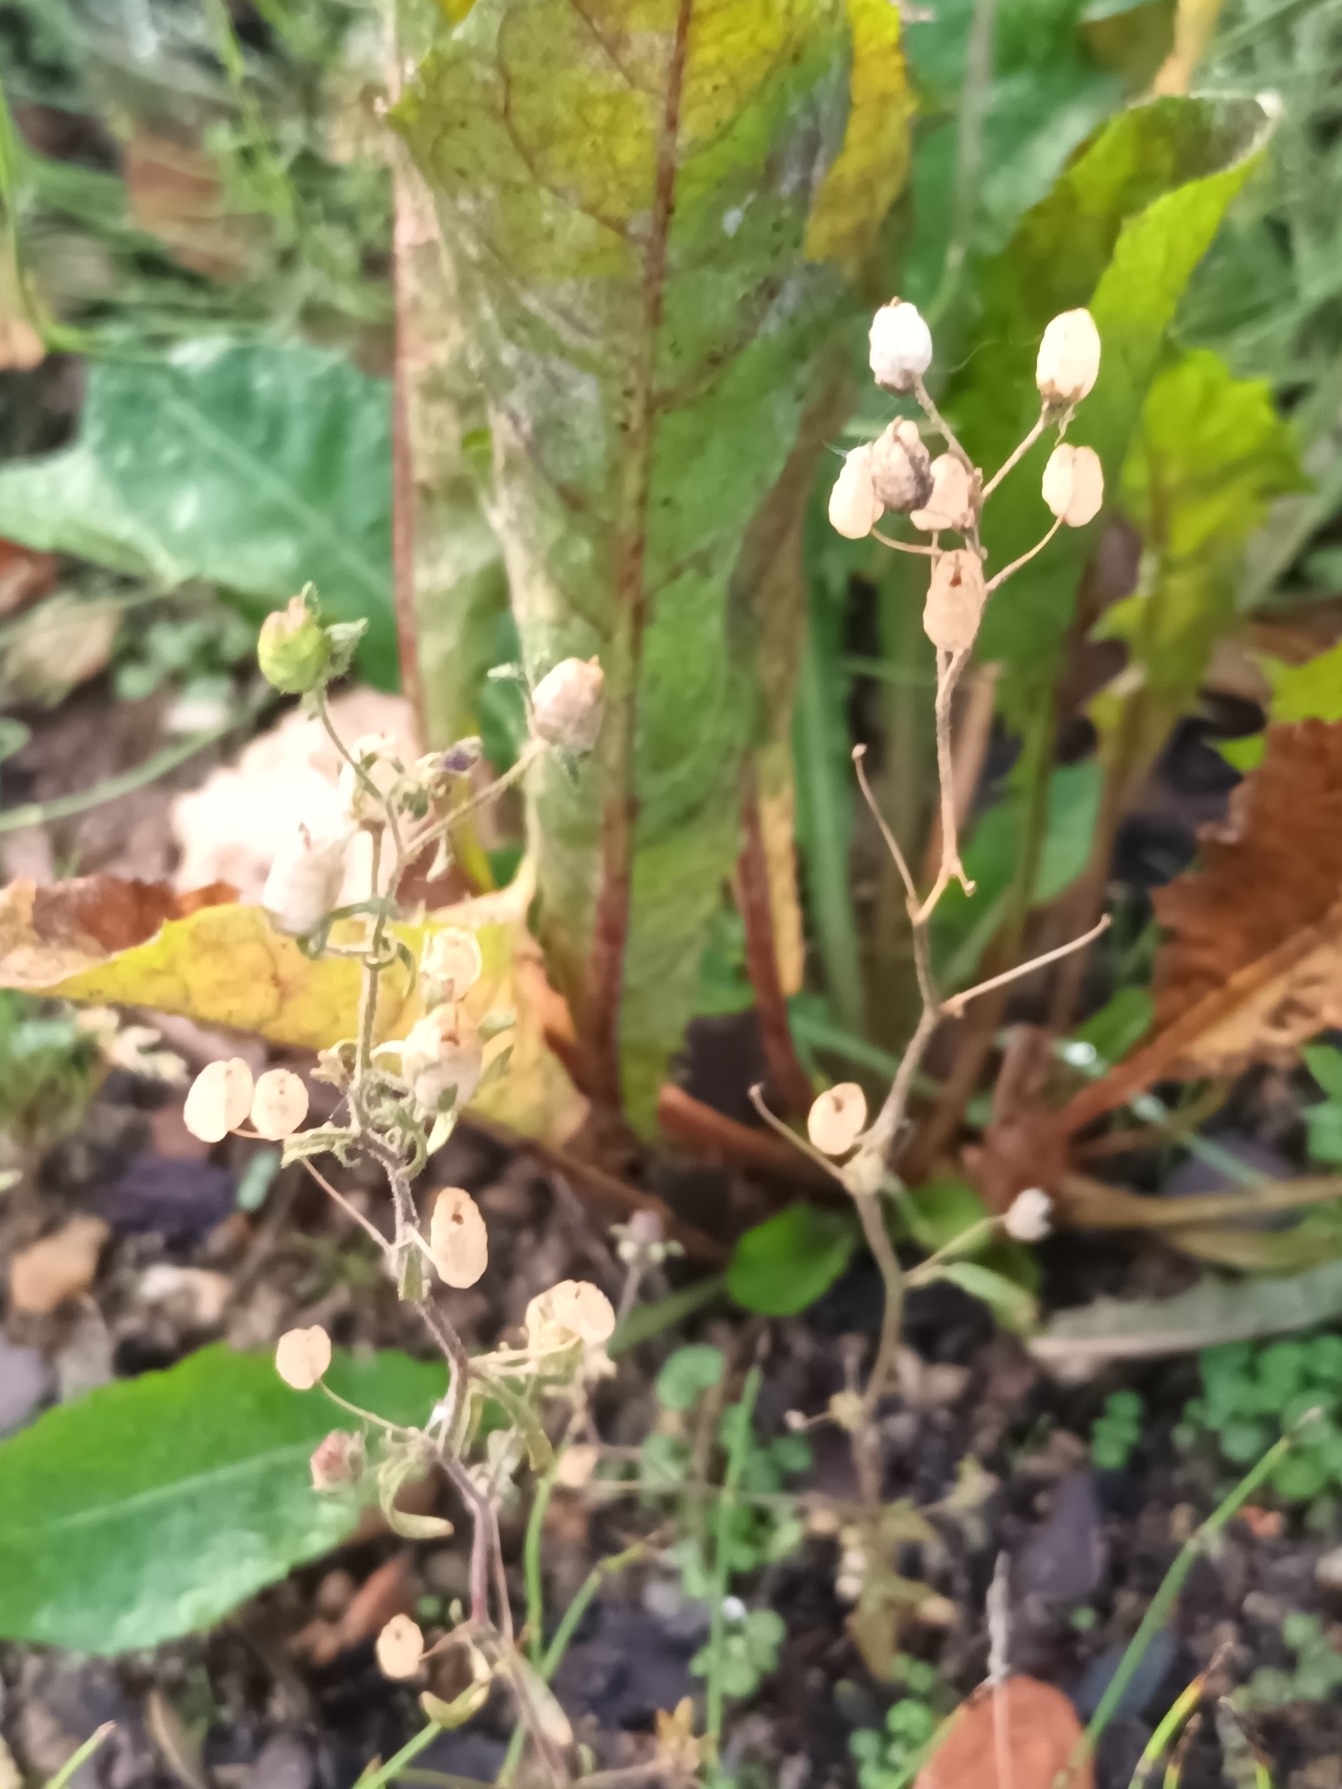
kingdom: Plantae
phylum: Tracheophyta
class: Magnoliopsida
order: Lamiales
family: Plantaginaceae
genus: Chaenorhinum
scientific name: Chaenorhinum minus
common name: Liden torskemund
